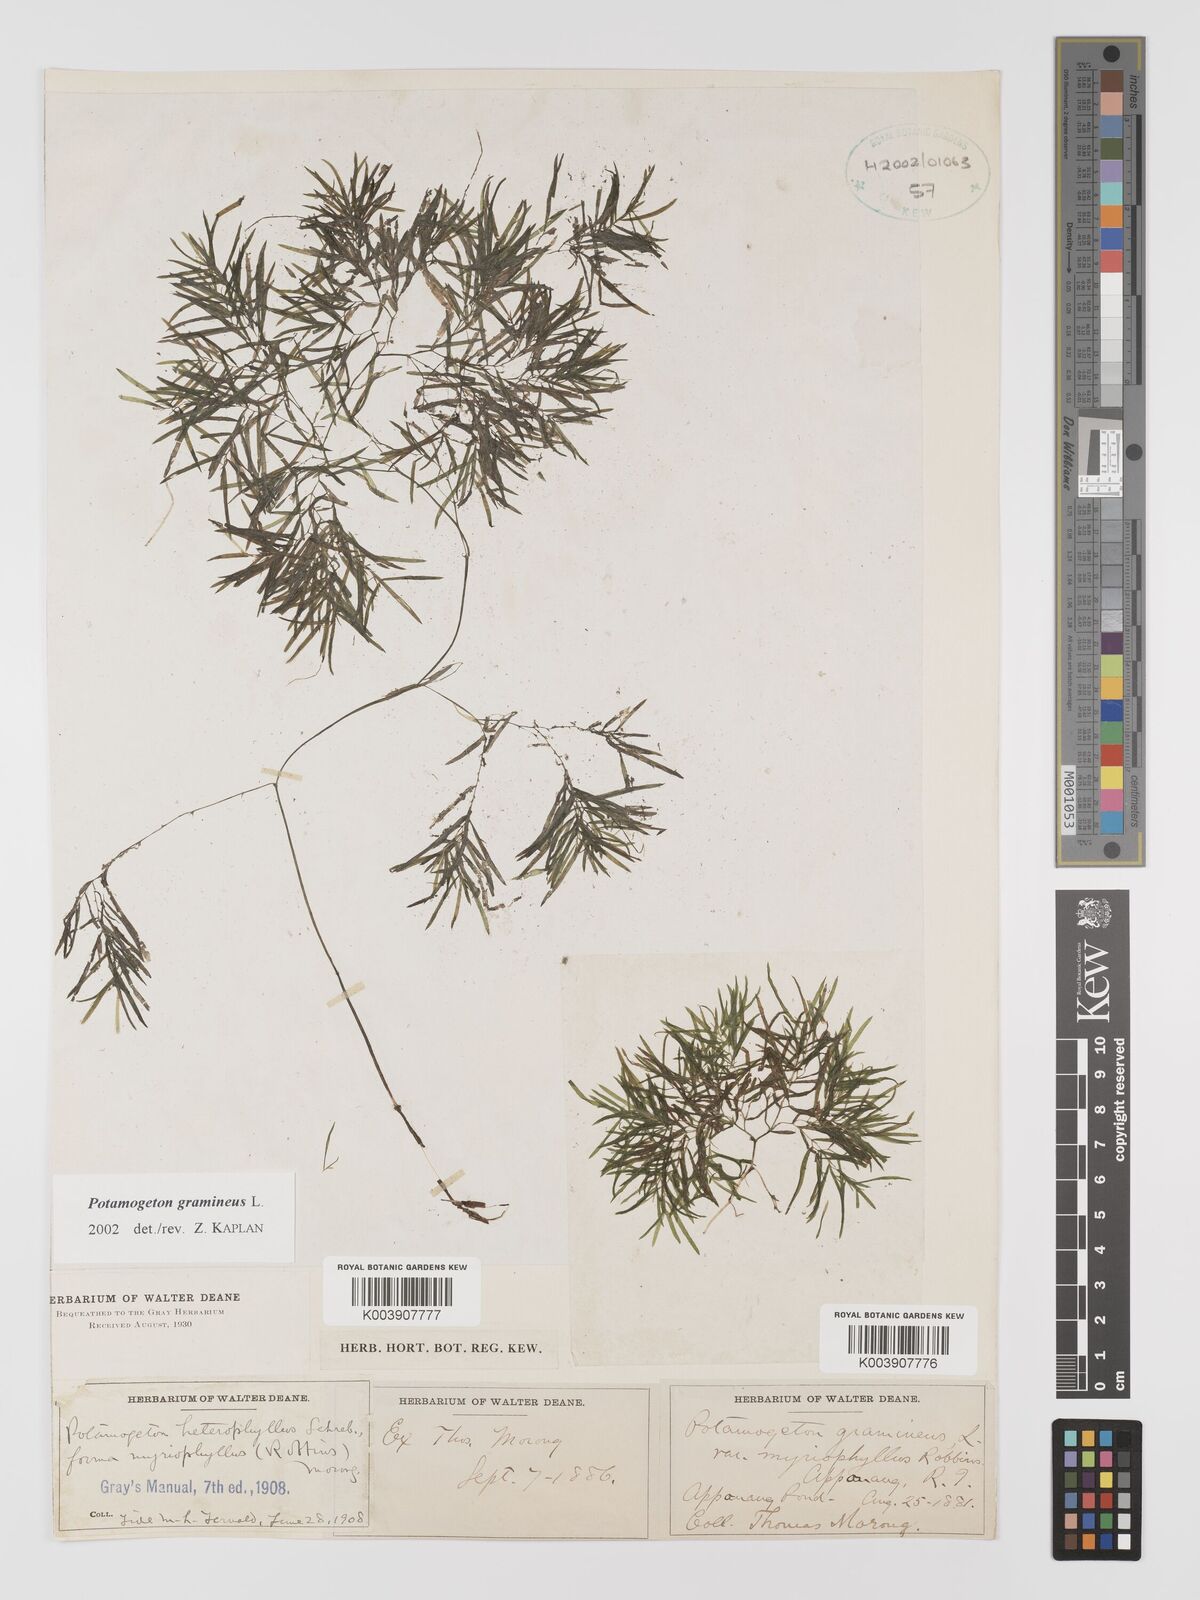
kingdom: Plantae
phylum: Tracheophyta
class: Liliopsida
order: Alismatales
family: Potamogetonaceae
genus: Potamogeton
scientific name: Potamogeton gramineus
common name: Various-leaved pondweed
